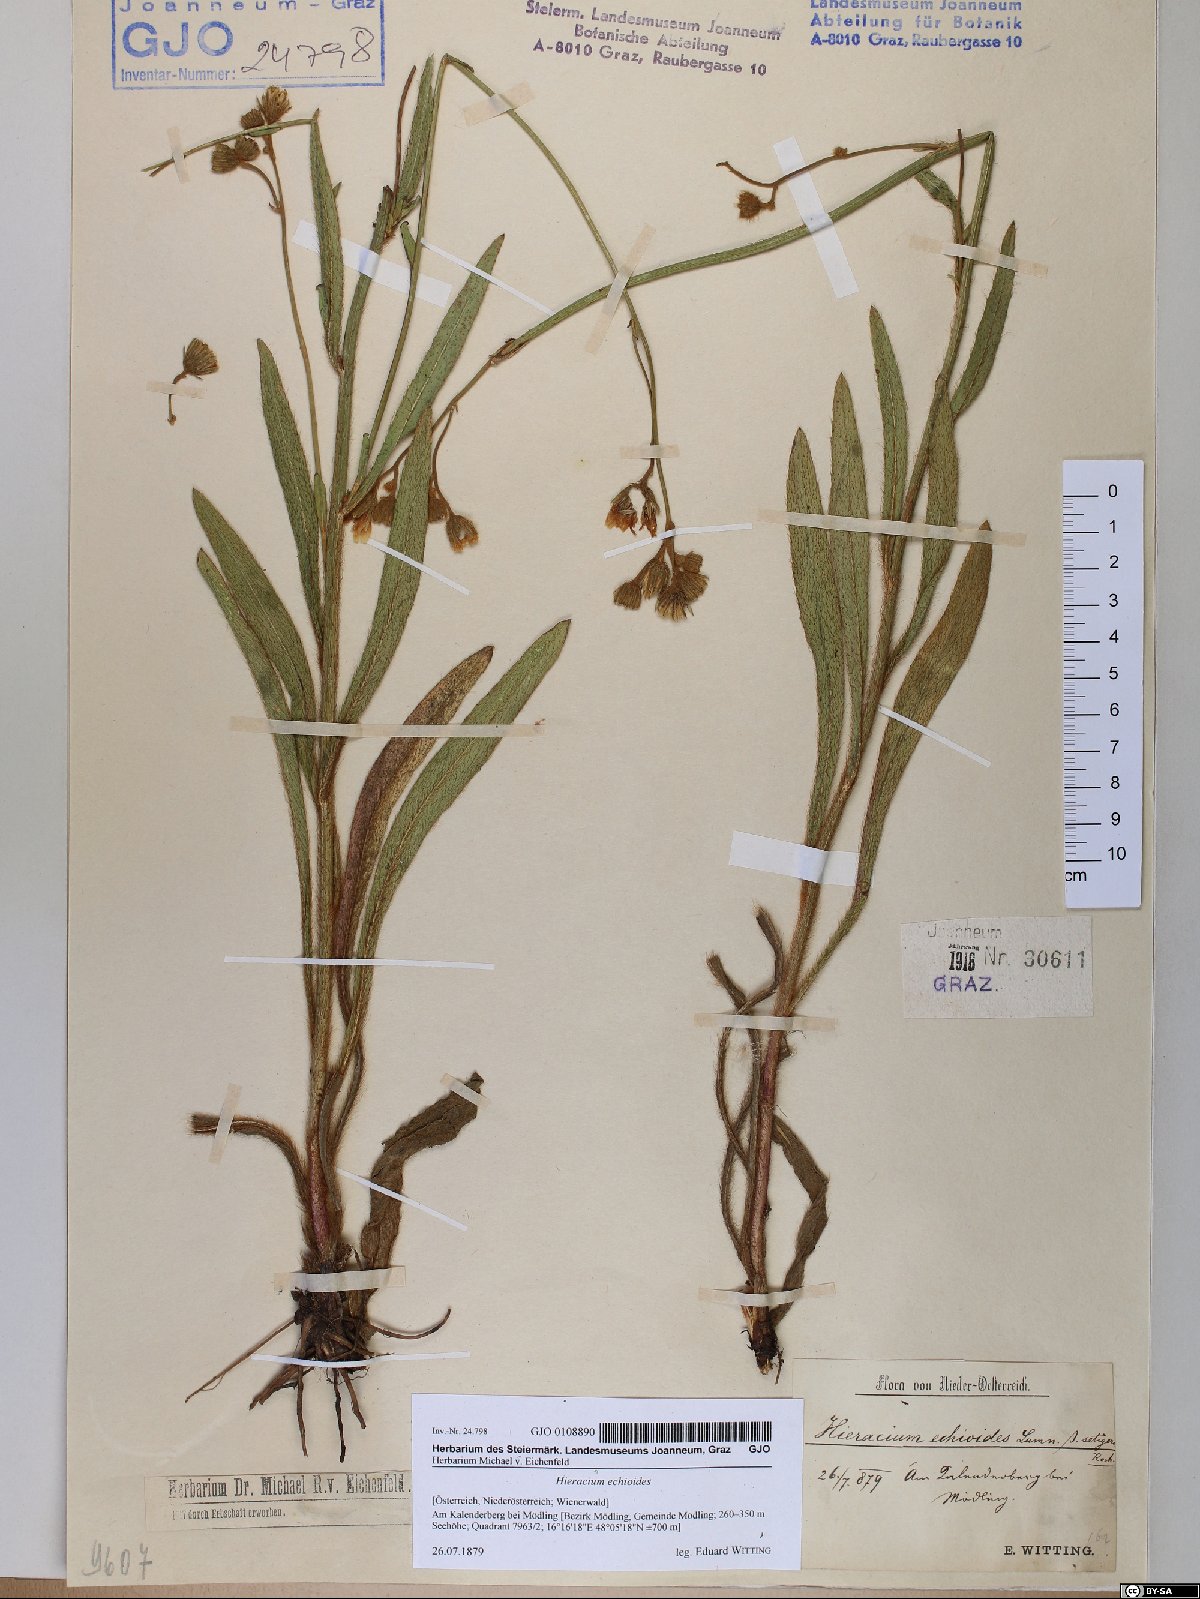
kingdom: Plantae
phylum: Tracheophyta
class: Magnoliopsida
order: Asterales
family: Asteraceae
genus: Pilosella
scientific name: Pilosella echioides
